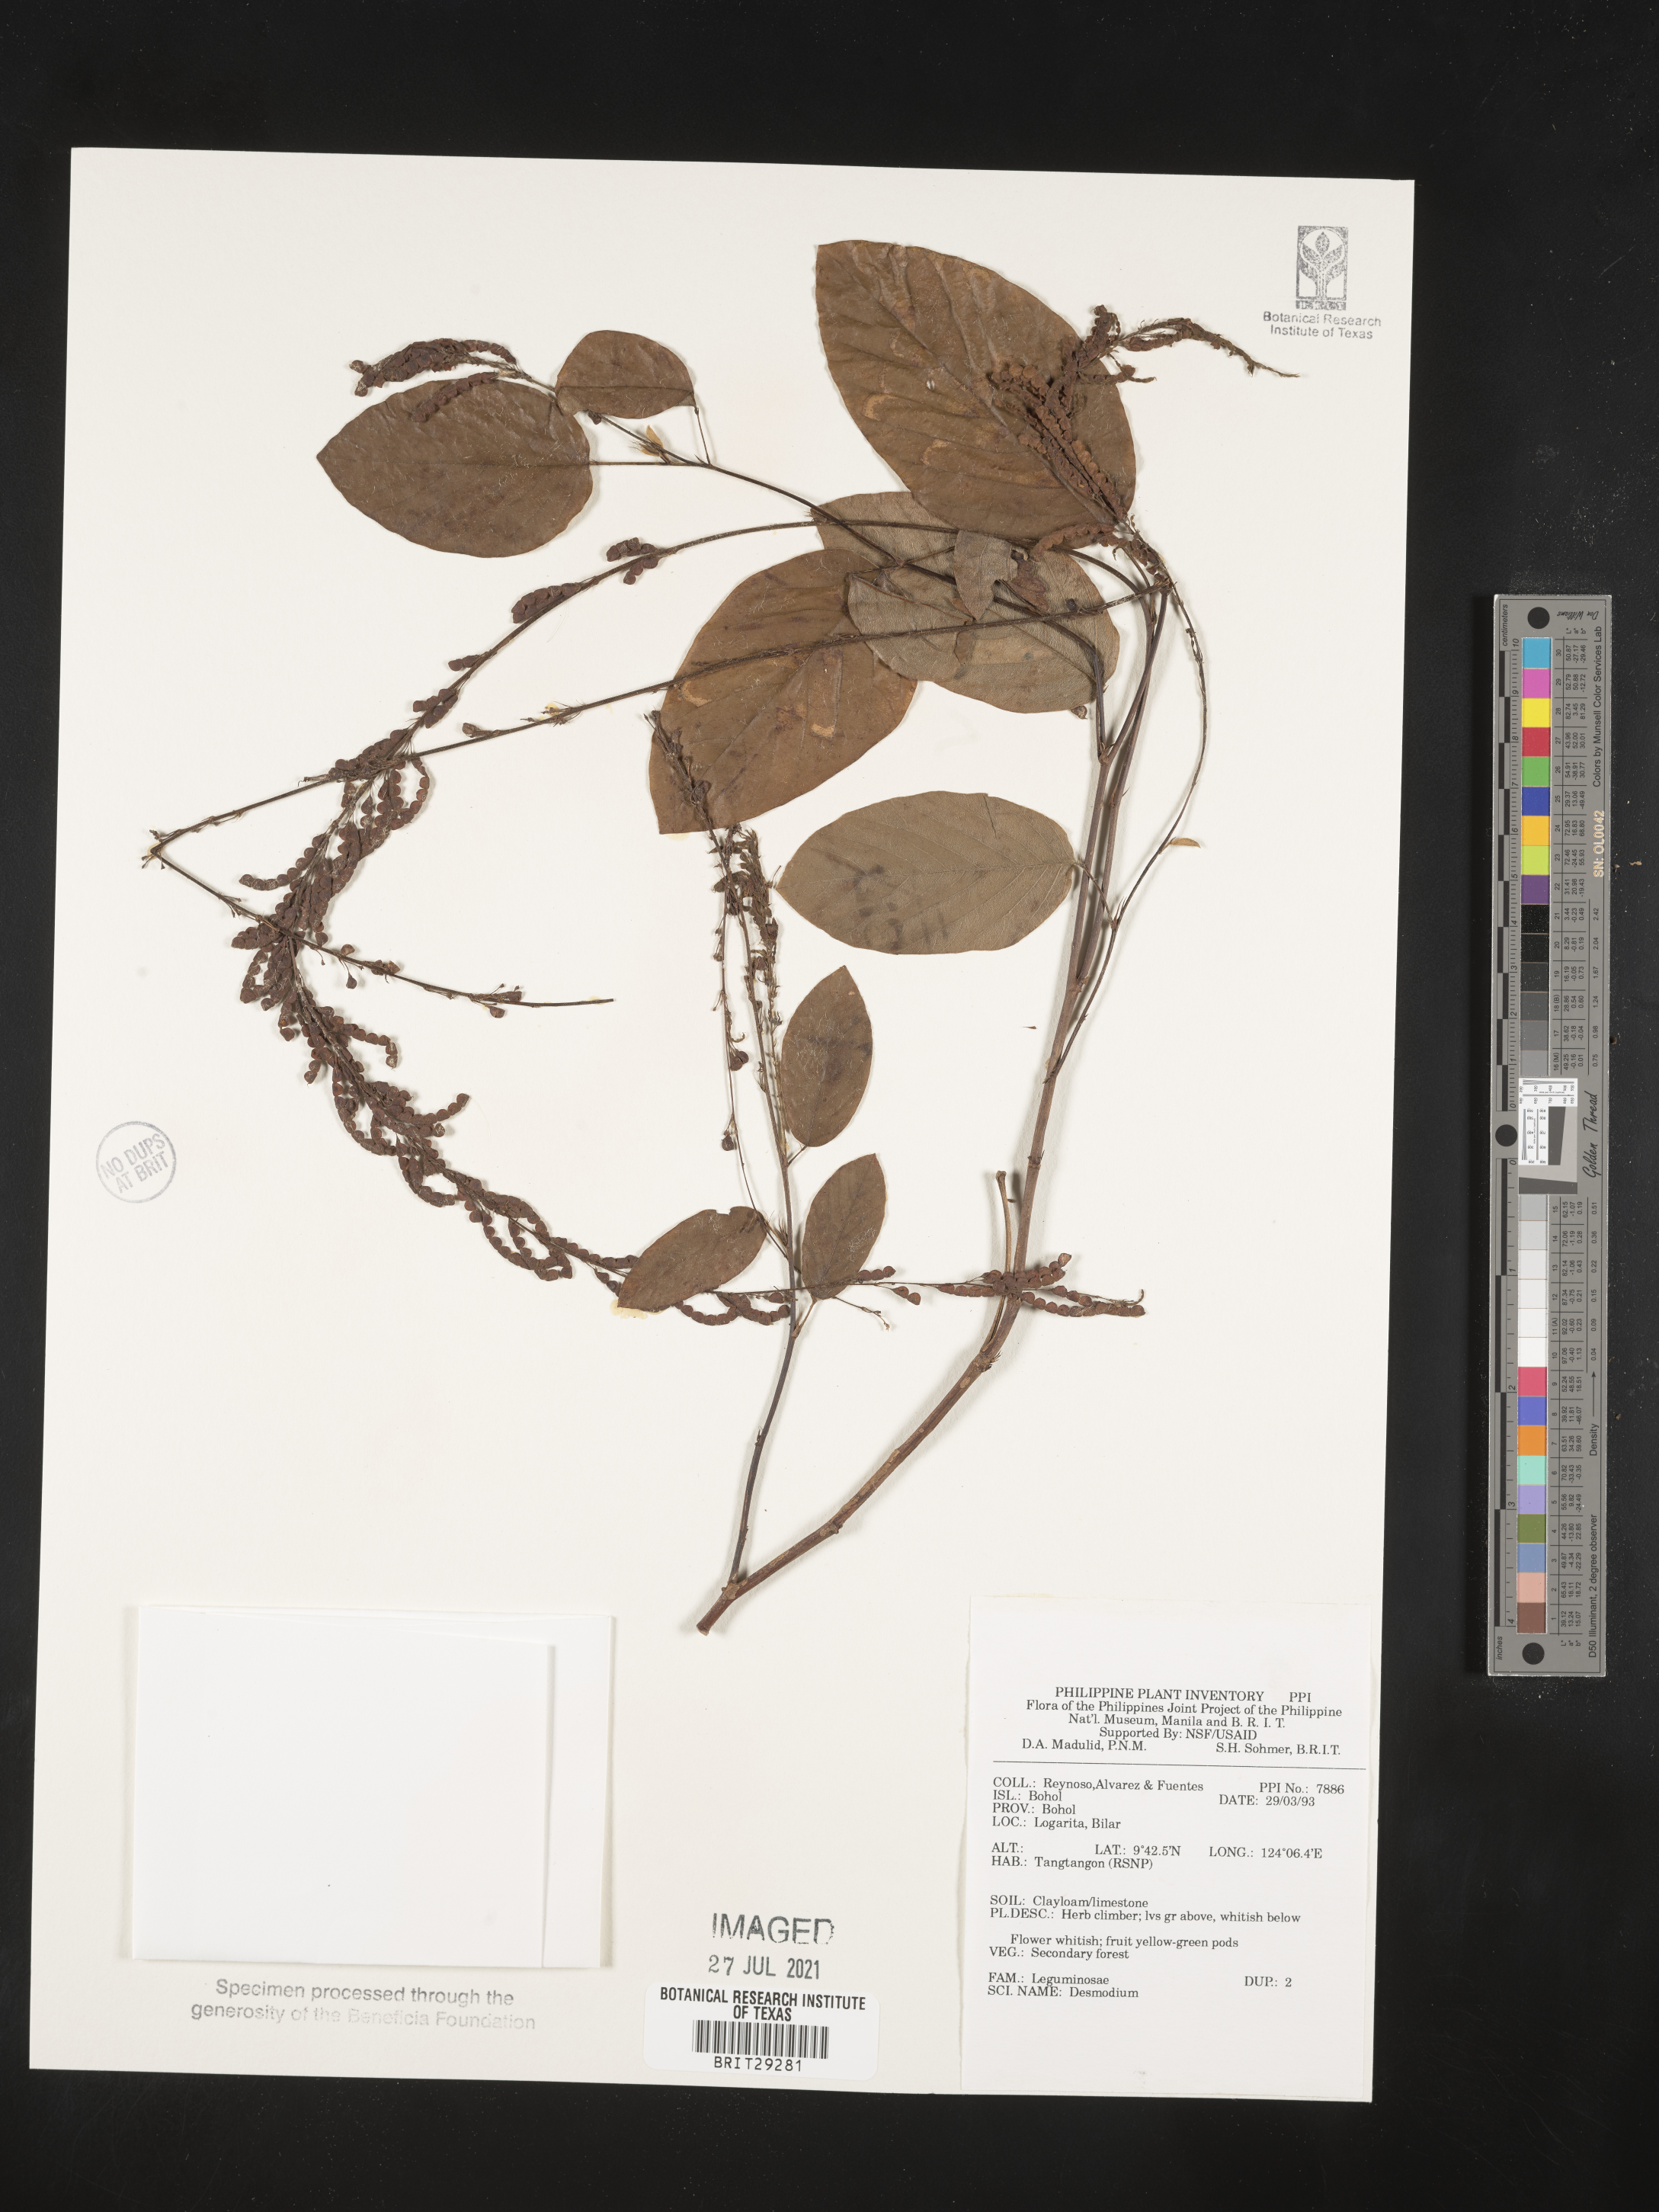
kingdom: Plantae
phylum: Tracheophyta
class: Magnoliopsida
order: Fabales
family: Fabaceae
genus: Desmodium
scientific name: Desmodium
